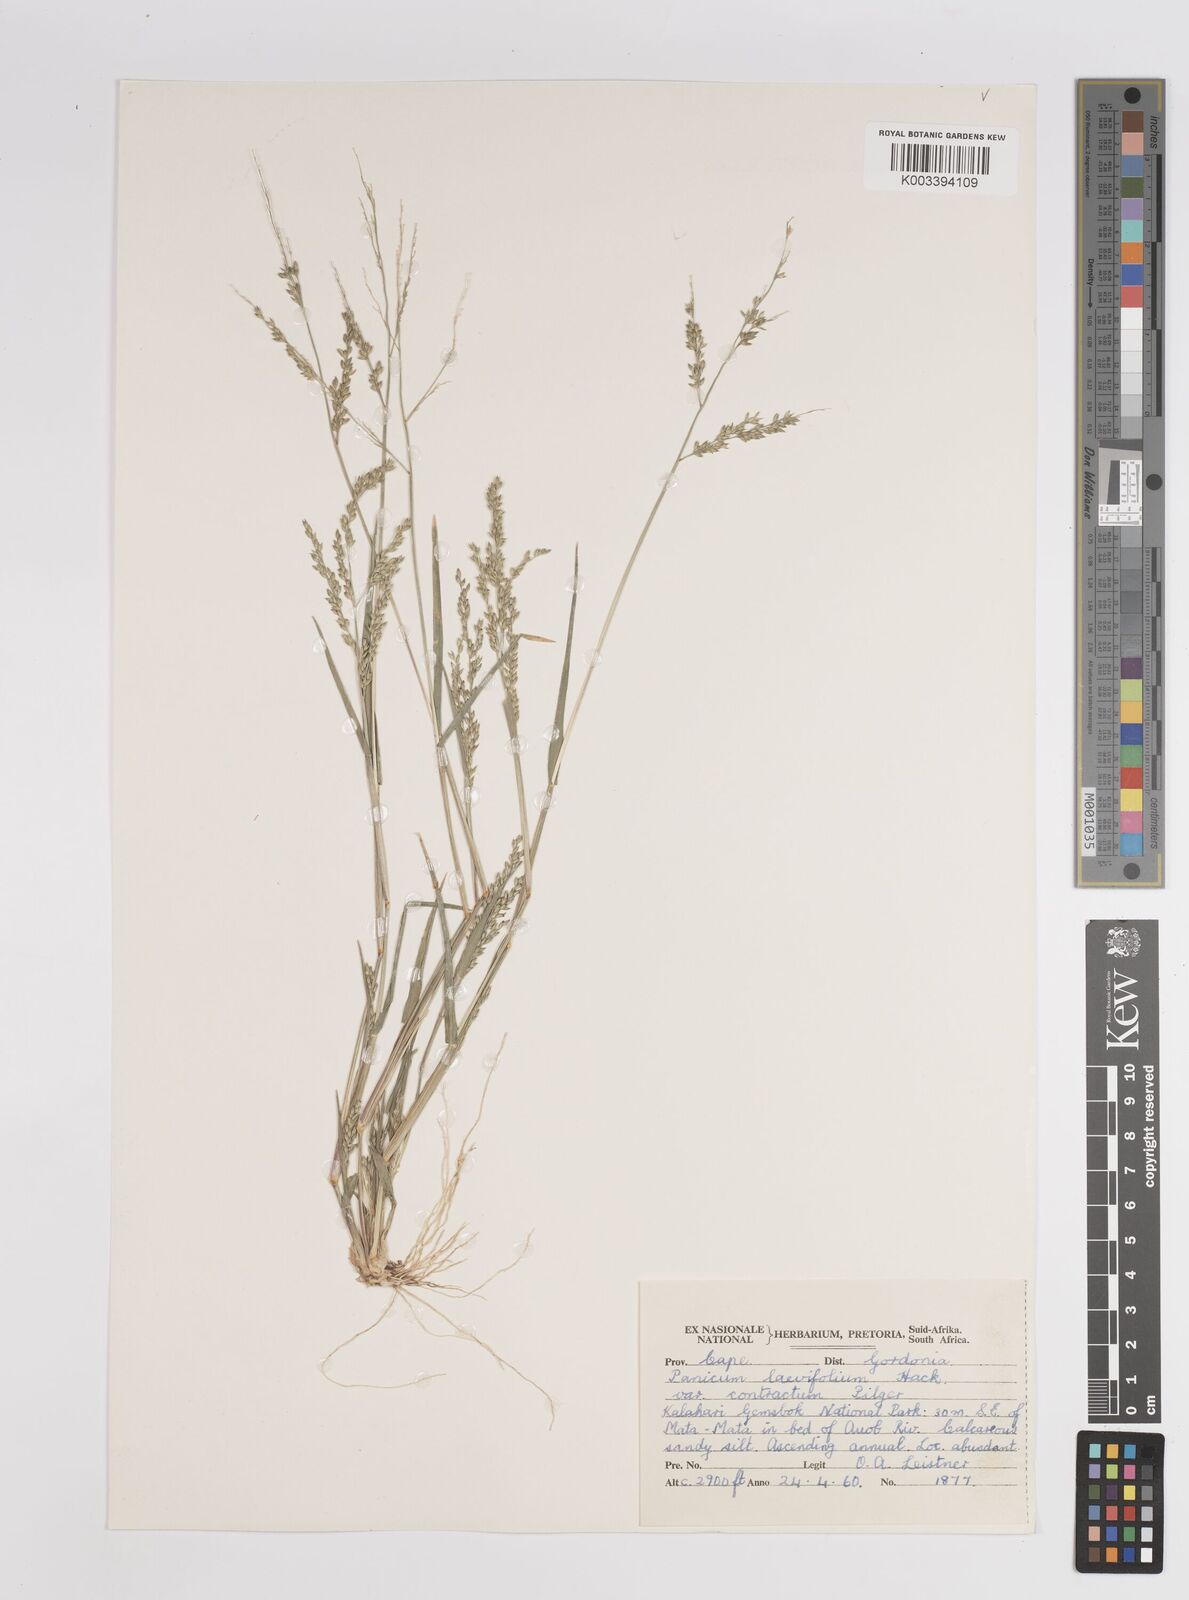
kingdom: Plantae
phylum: Tracheophyta
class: Liliopsida
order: Poales
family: Poaceae
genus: Panicum
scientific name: Panicum impeditum
